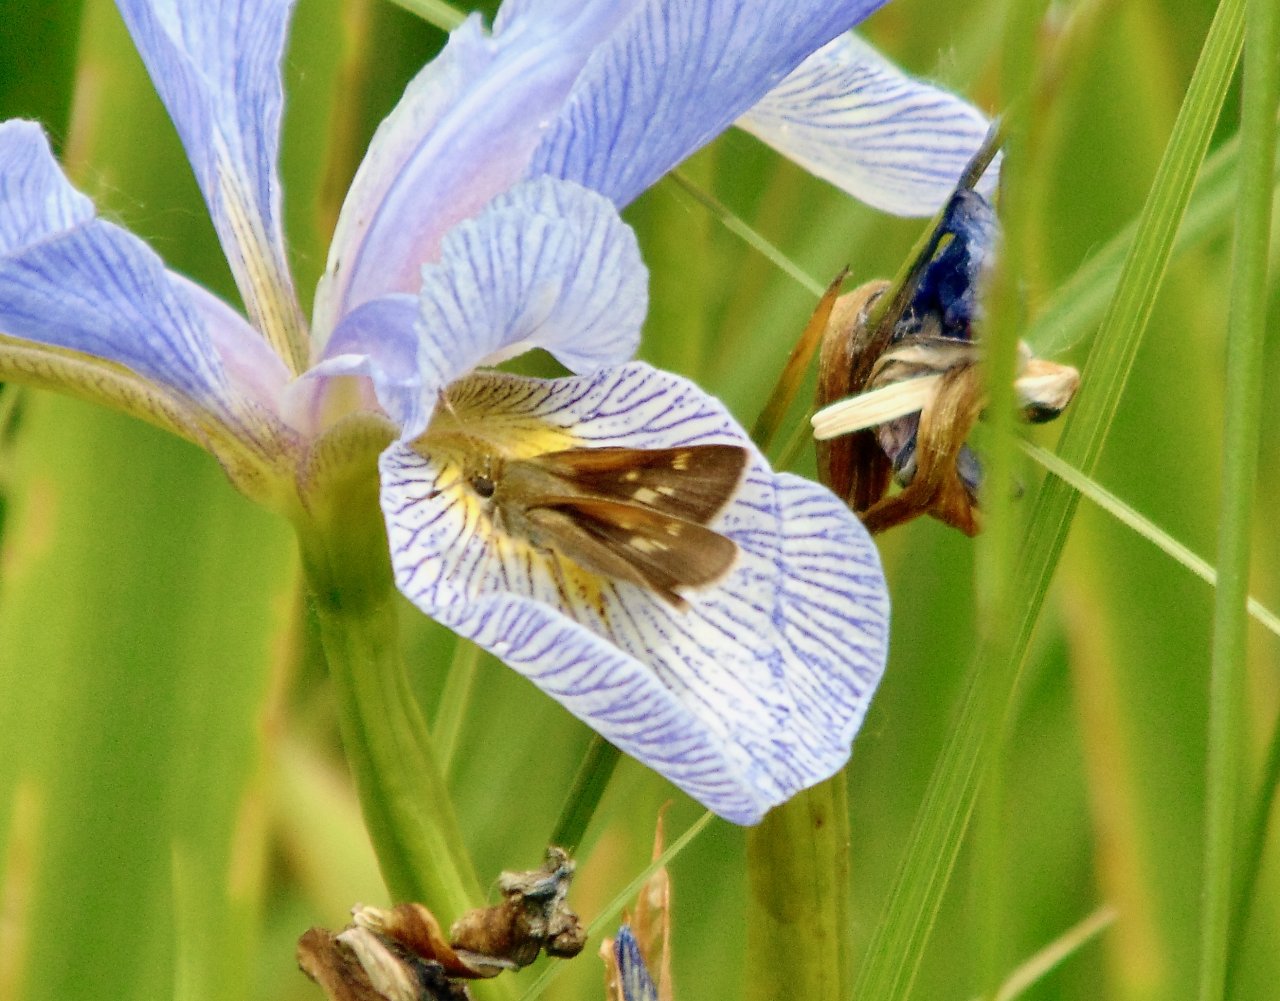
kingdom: Animalia
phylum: Arthropoda
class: Insecta
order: Lepidoptera
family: Hesperiidae
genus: Polites
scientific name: Polites themistocles
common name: Tawny-edged Skipper
